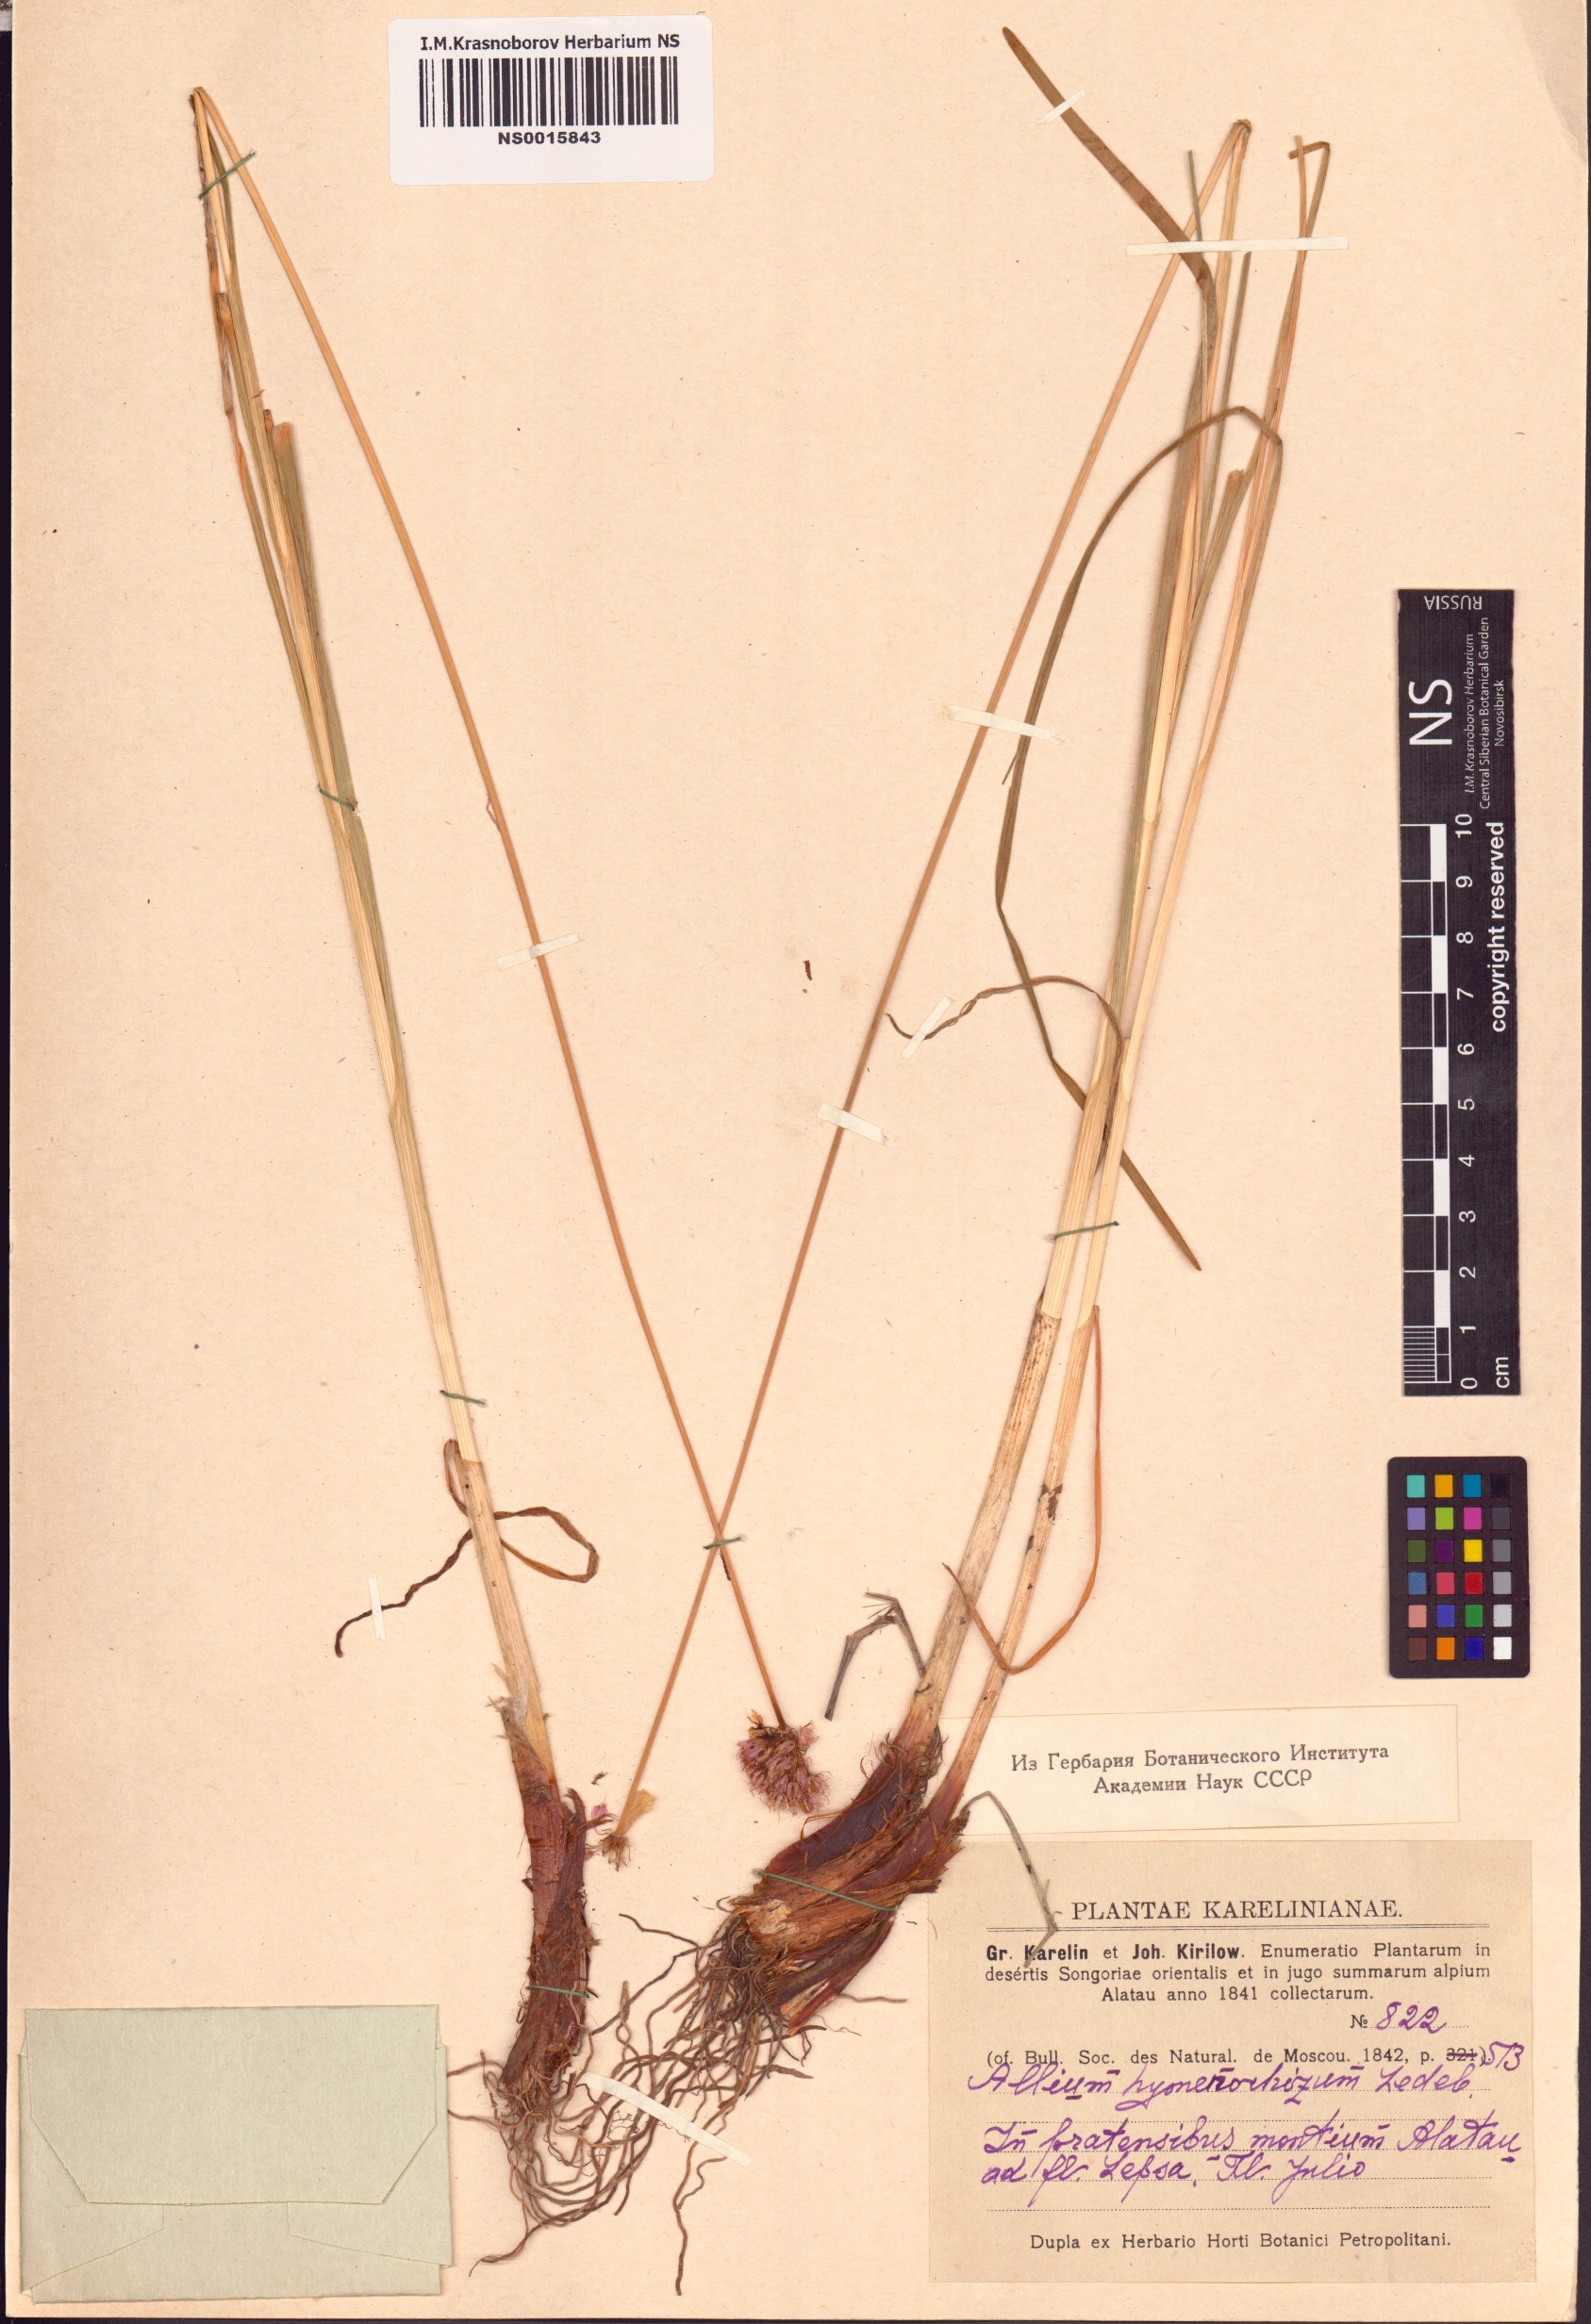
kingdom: Plantae
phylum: Tracheophyta
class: Liliopsida
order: Asparagales
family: Amaryllidaceae
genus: Allium
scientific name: Allium hymenorhizum
